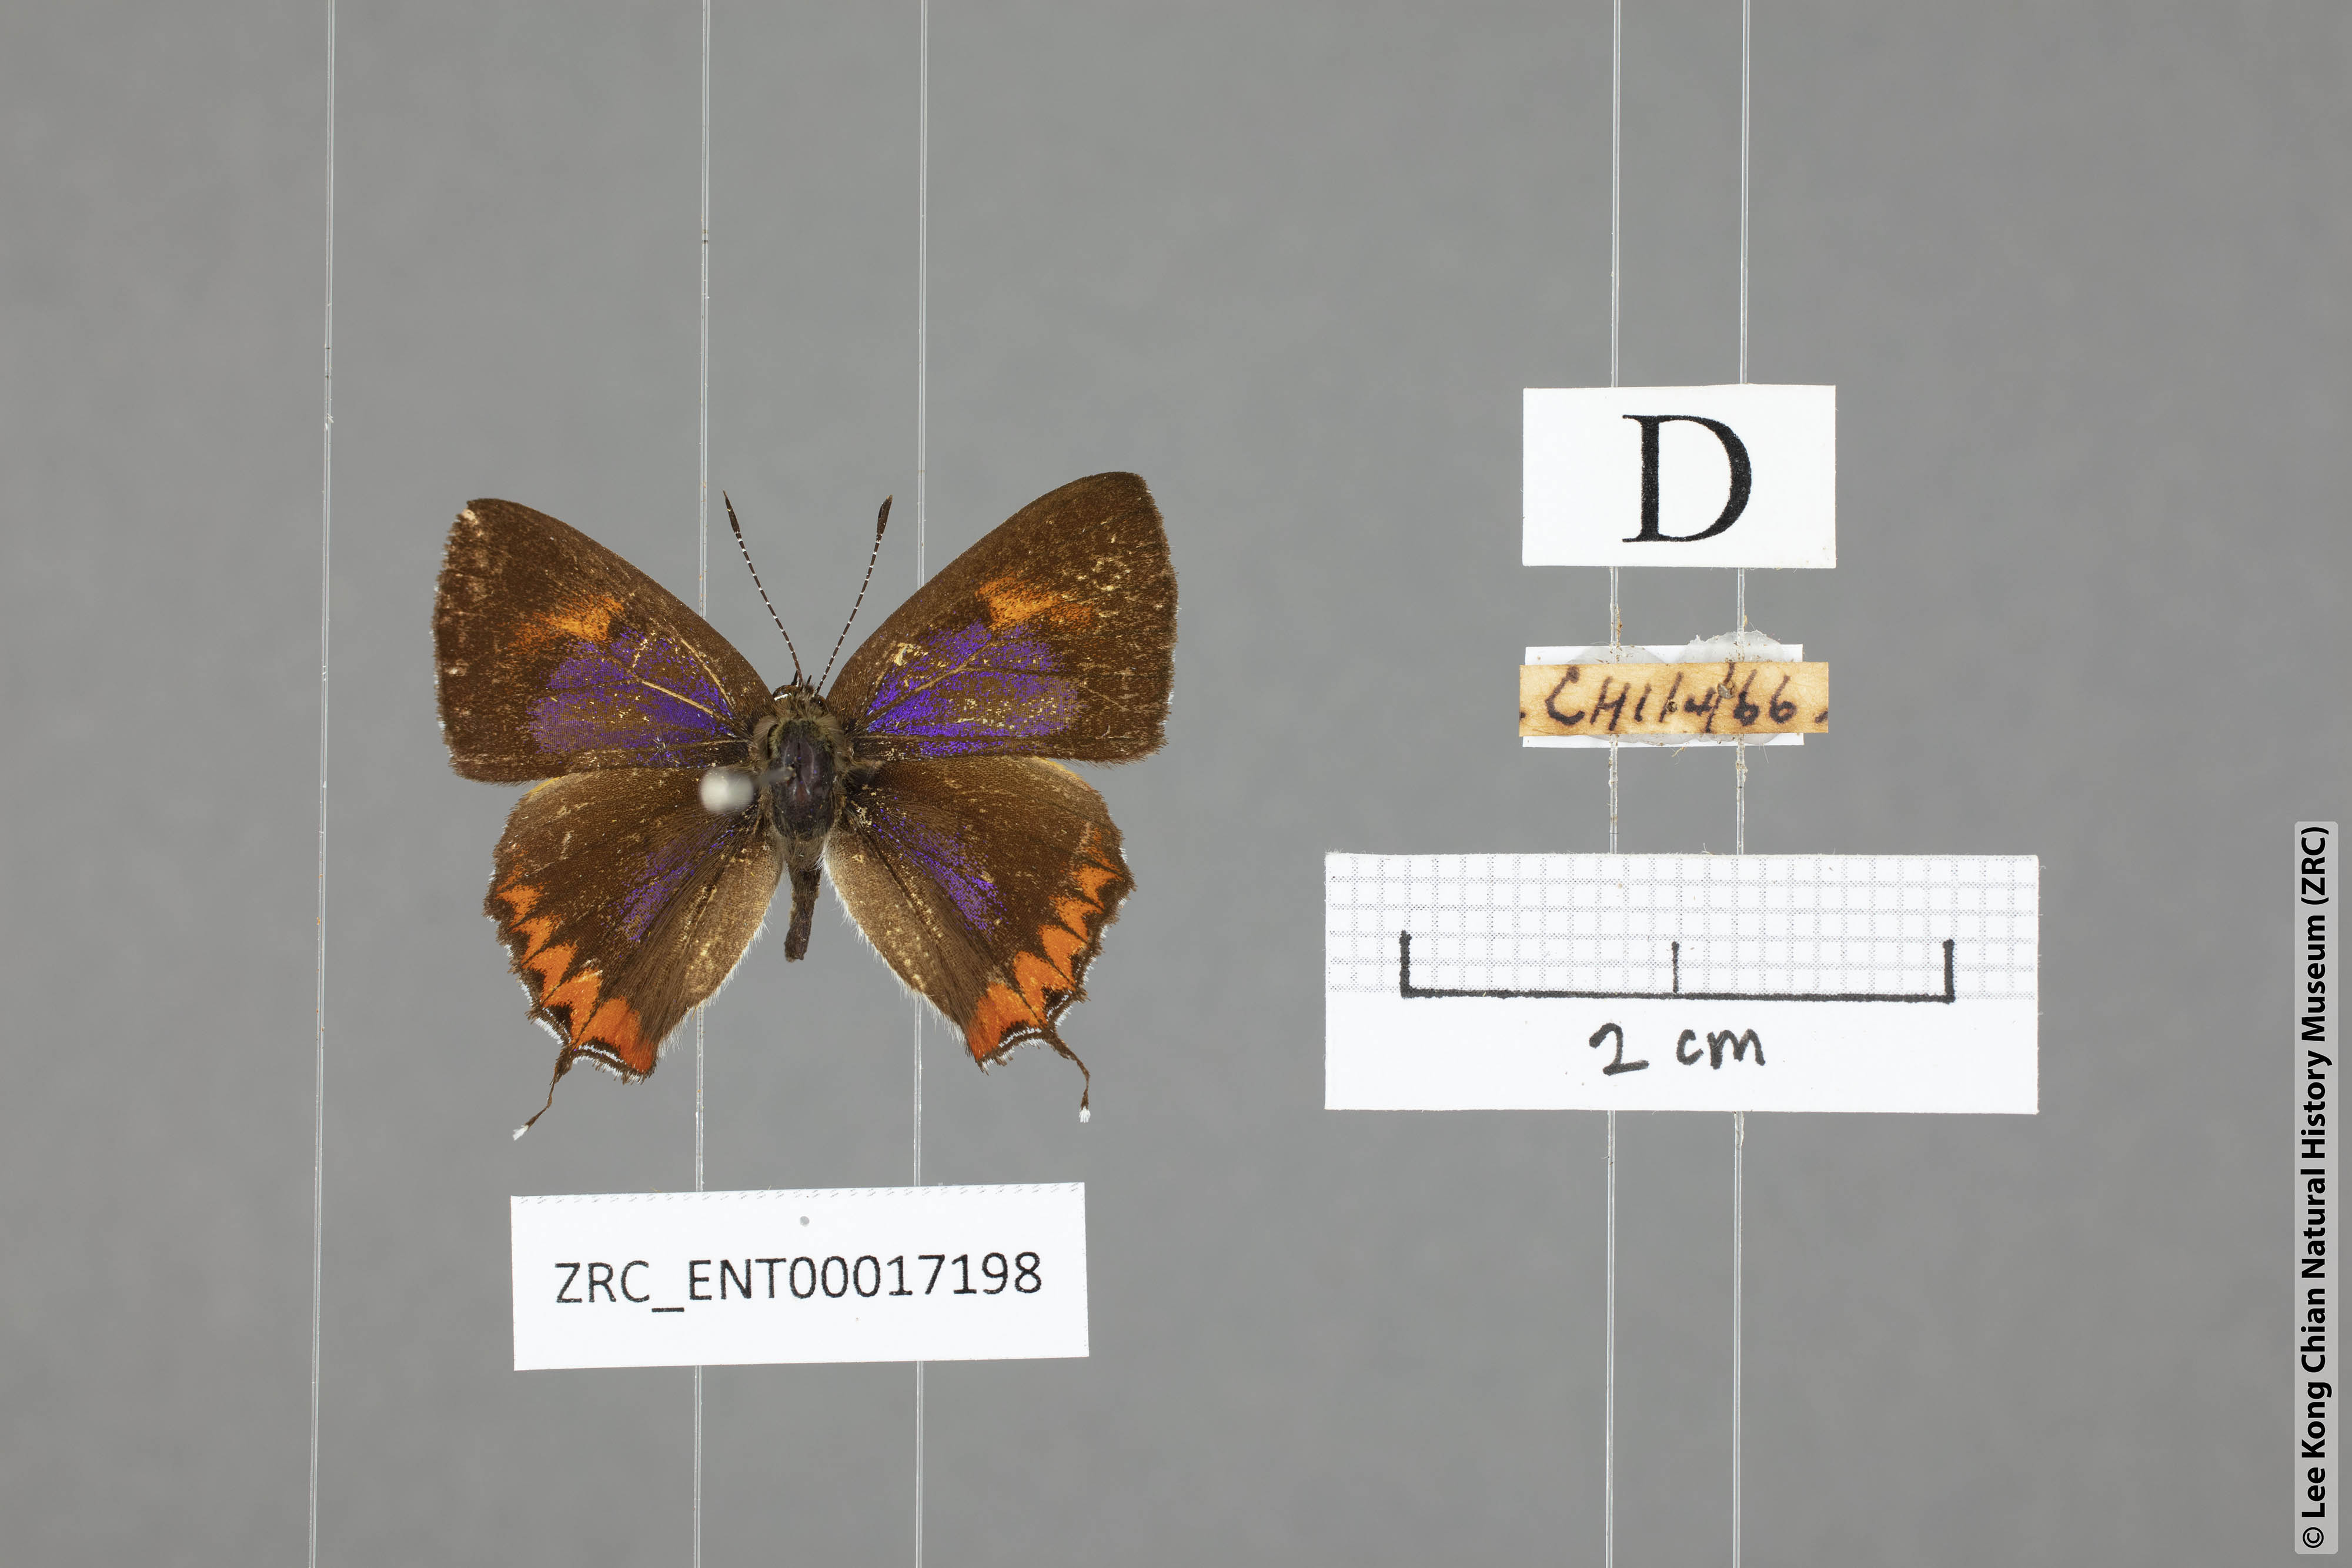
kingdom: Animalia
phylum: Arthropoda
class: Insecta
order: Lepidoptera
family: Lycaenidae
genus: Heliophorus
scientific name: Heliophorus epicles
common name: Purple sapphire
